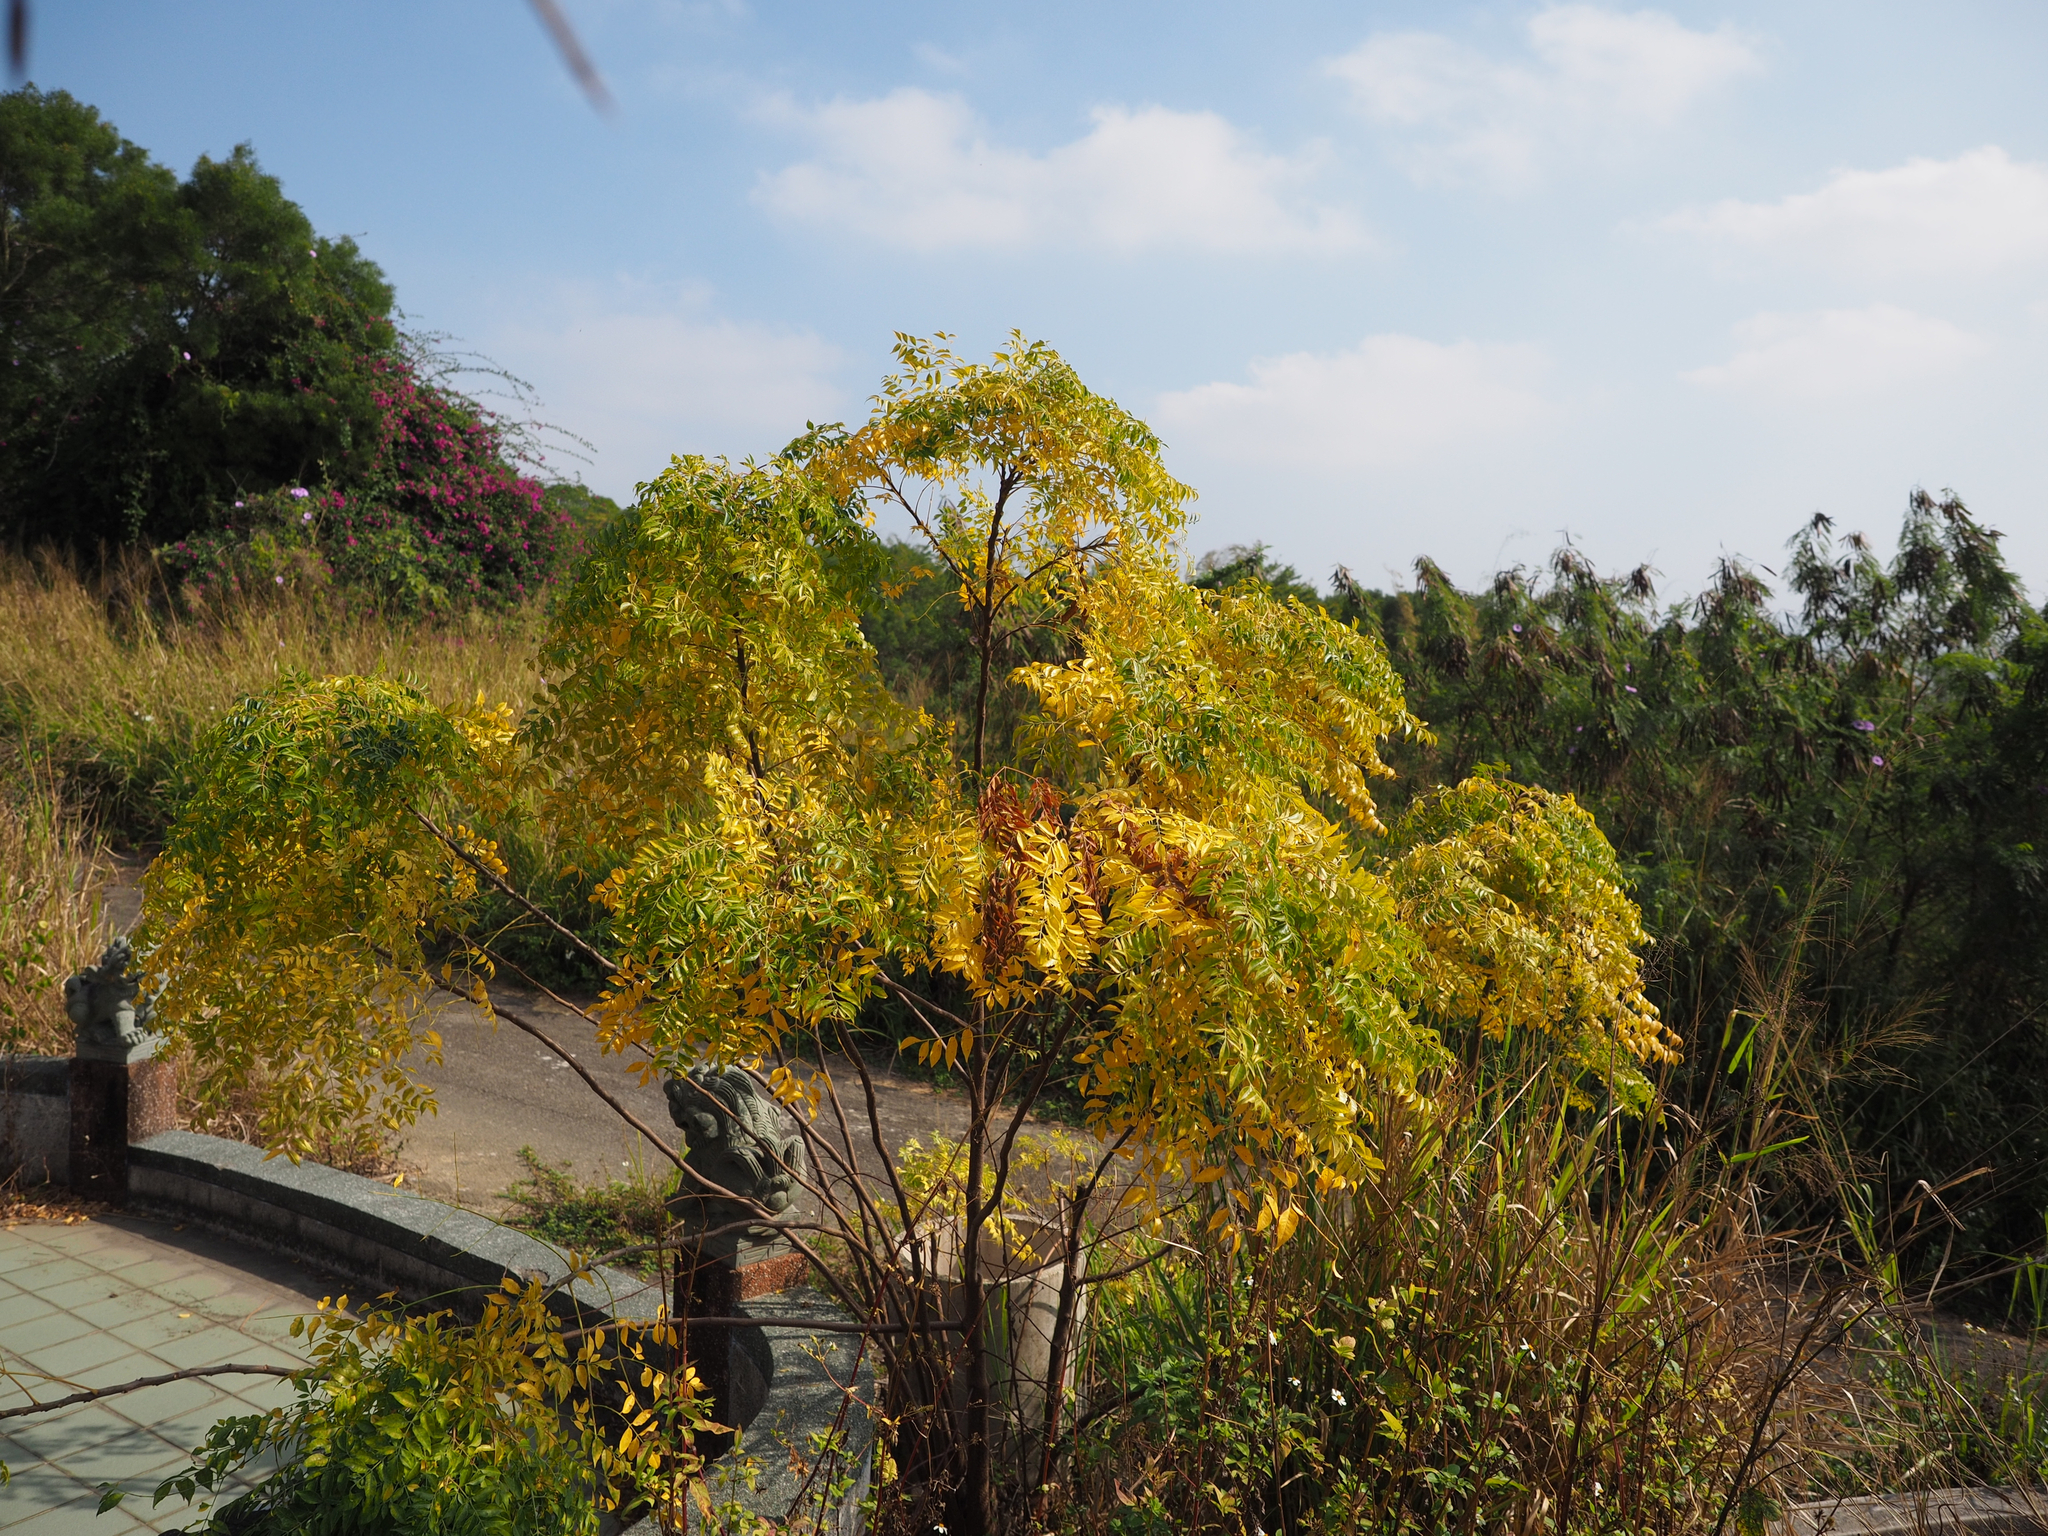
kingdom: Plantae
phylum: Tracheophyta
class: Magnoliopsida
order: Sapindales
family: Meliaceae
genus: Melia
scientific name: Melia azedarach
